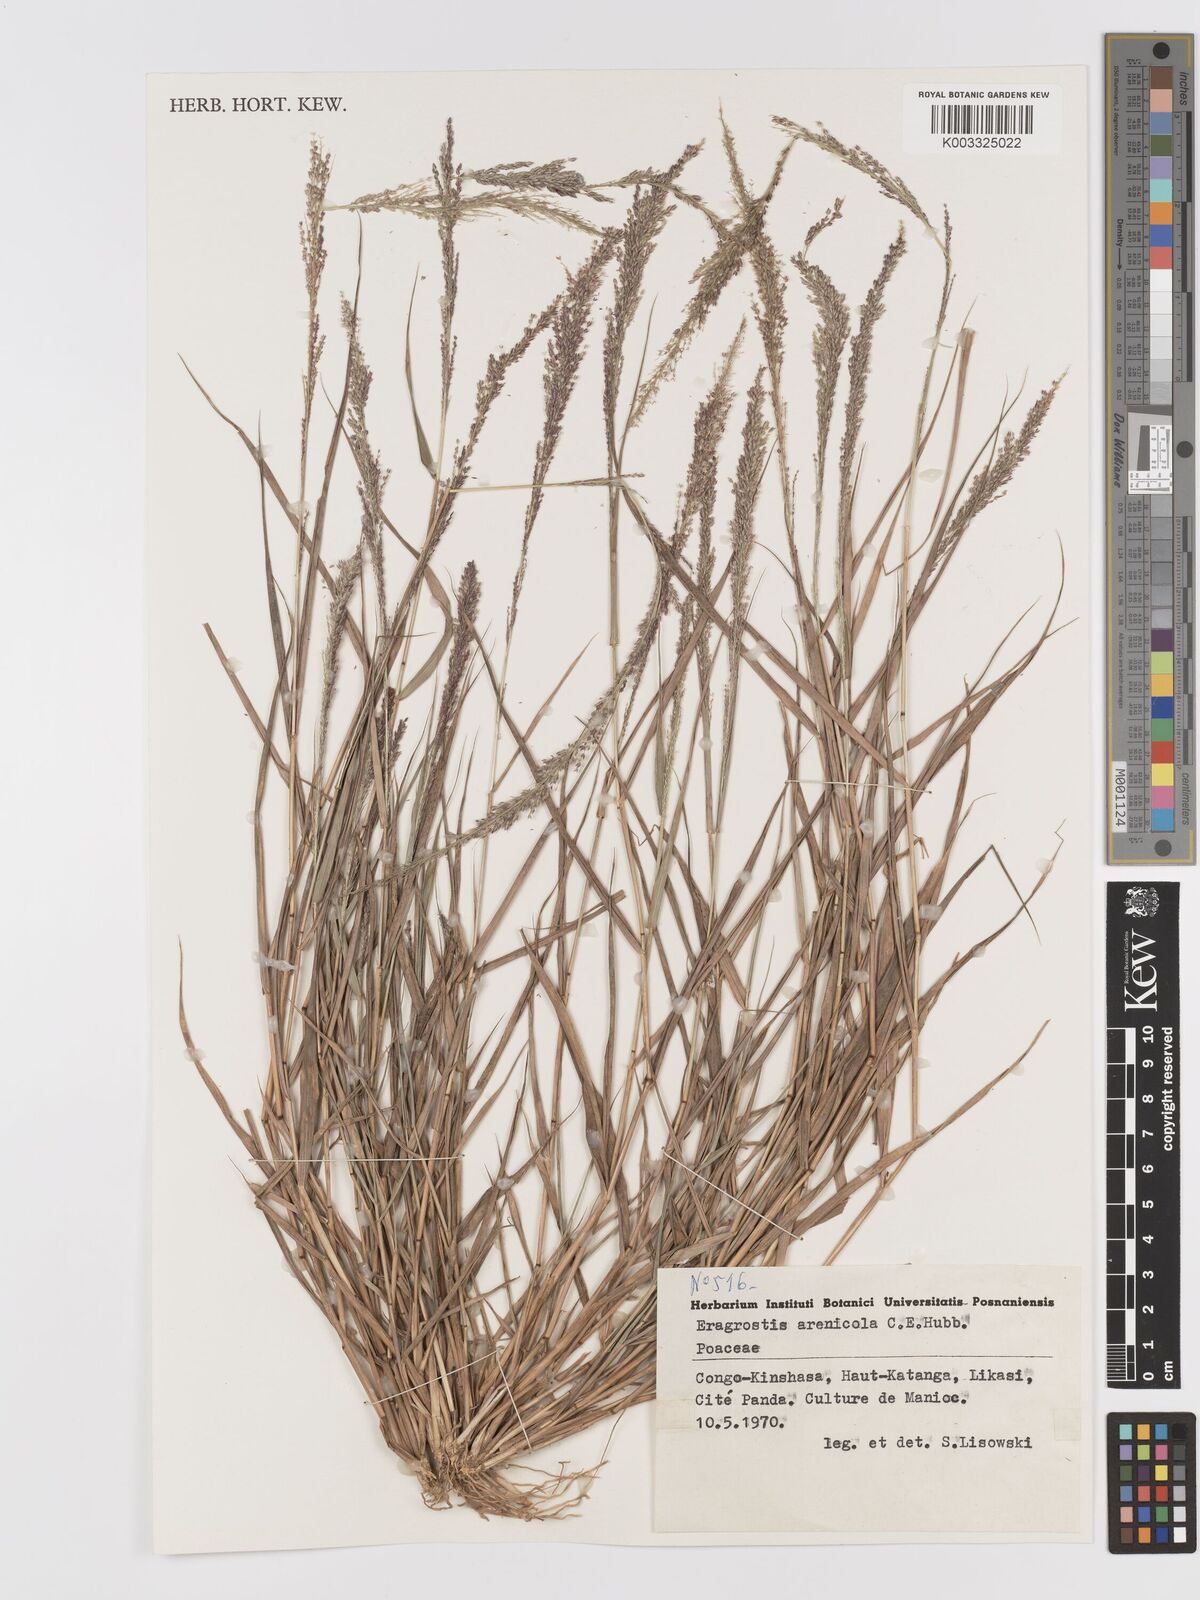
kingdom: Plantae
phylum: Tracheophyta
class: Liliopsida
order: Poales
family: Poaceae
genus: Eragrostis
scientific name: Eragrostis arenicola
